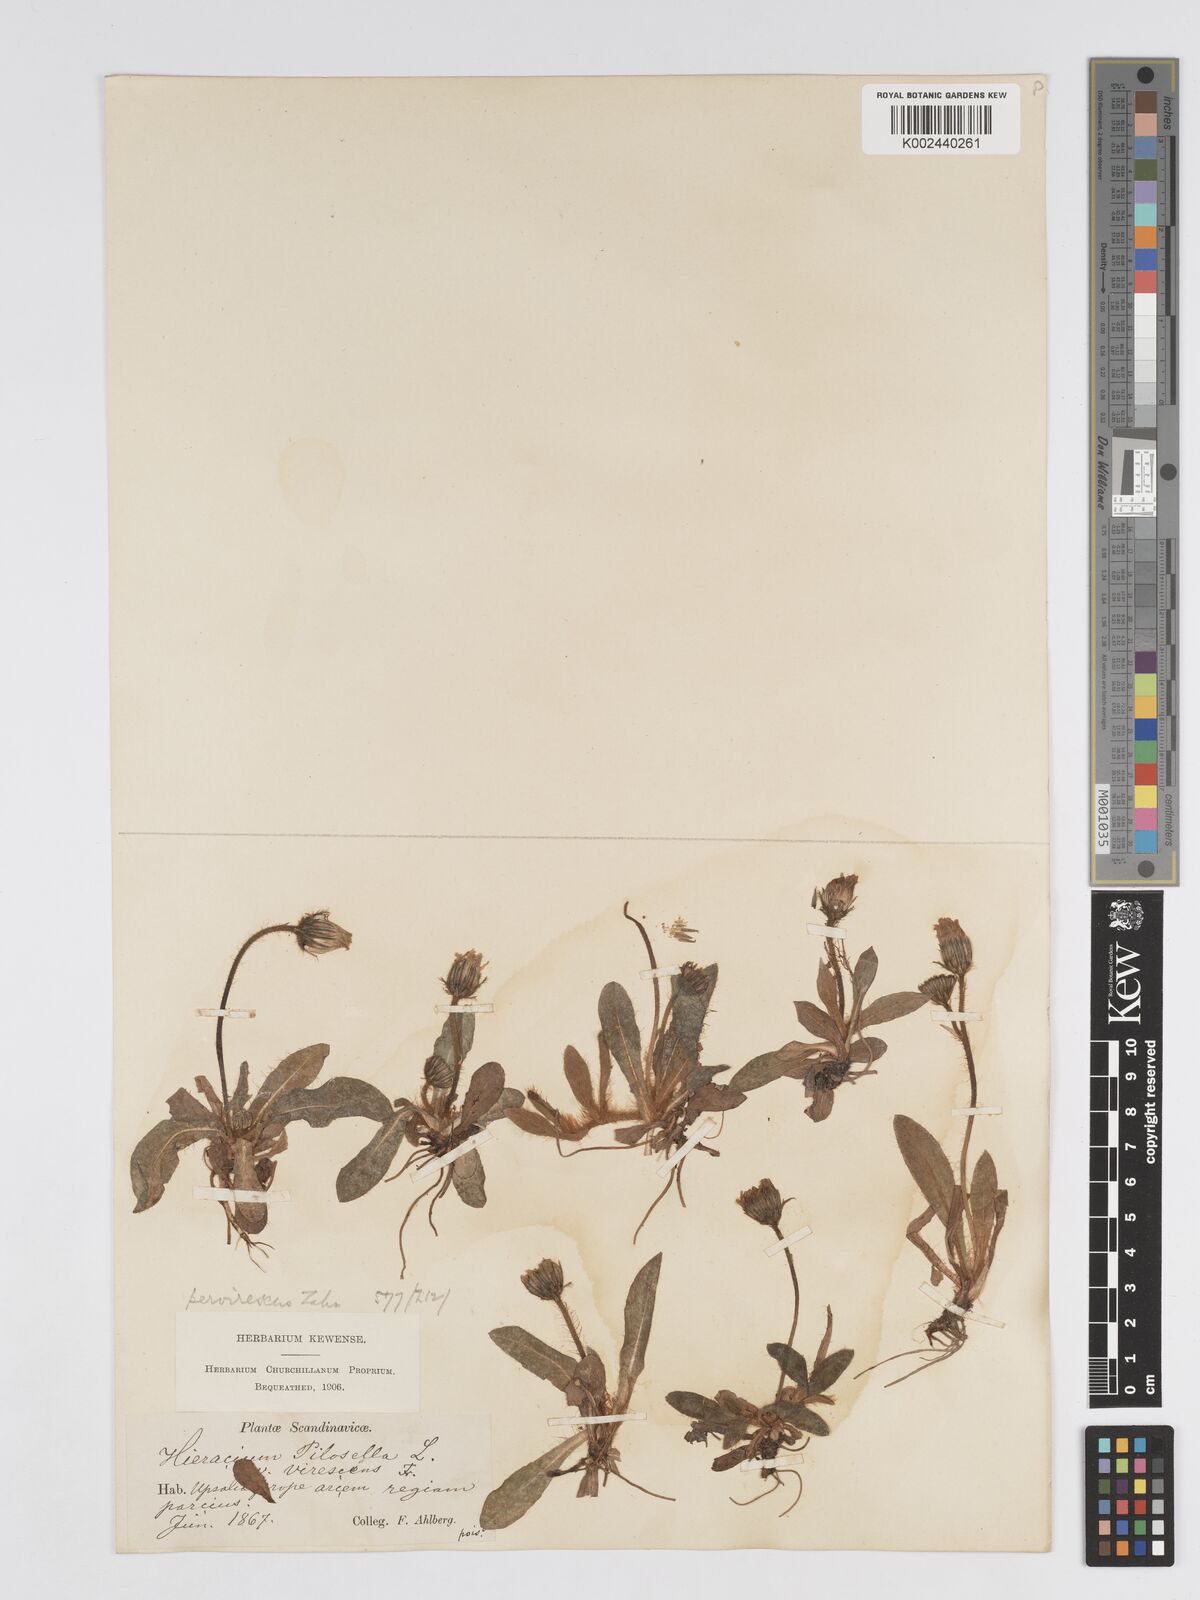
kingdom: Plantae
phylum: Tracheophyta
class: Magnoliopsida
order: Asterales
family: Asteraceae
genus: Pilosella
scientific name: Pilosella officinarum
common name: Mouse-ear hawkweed
